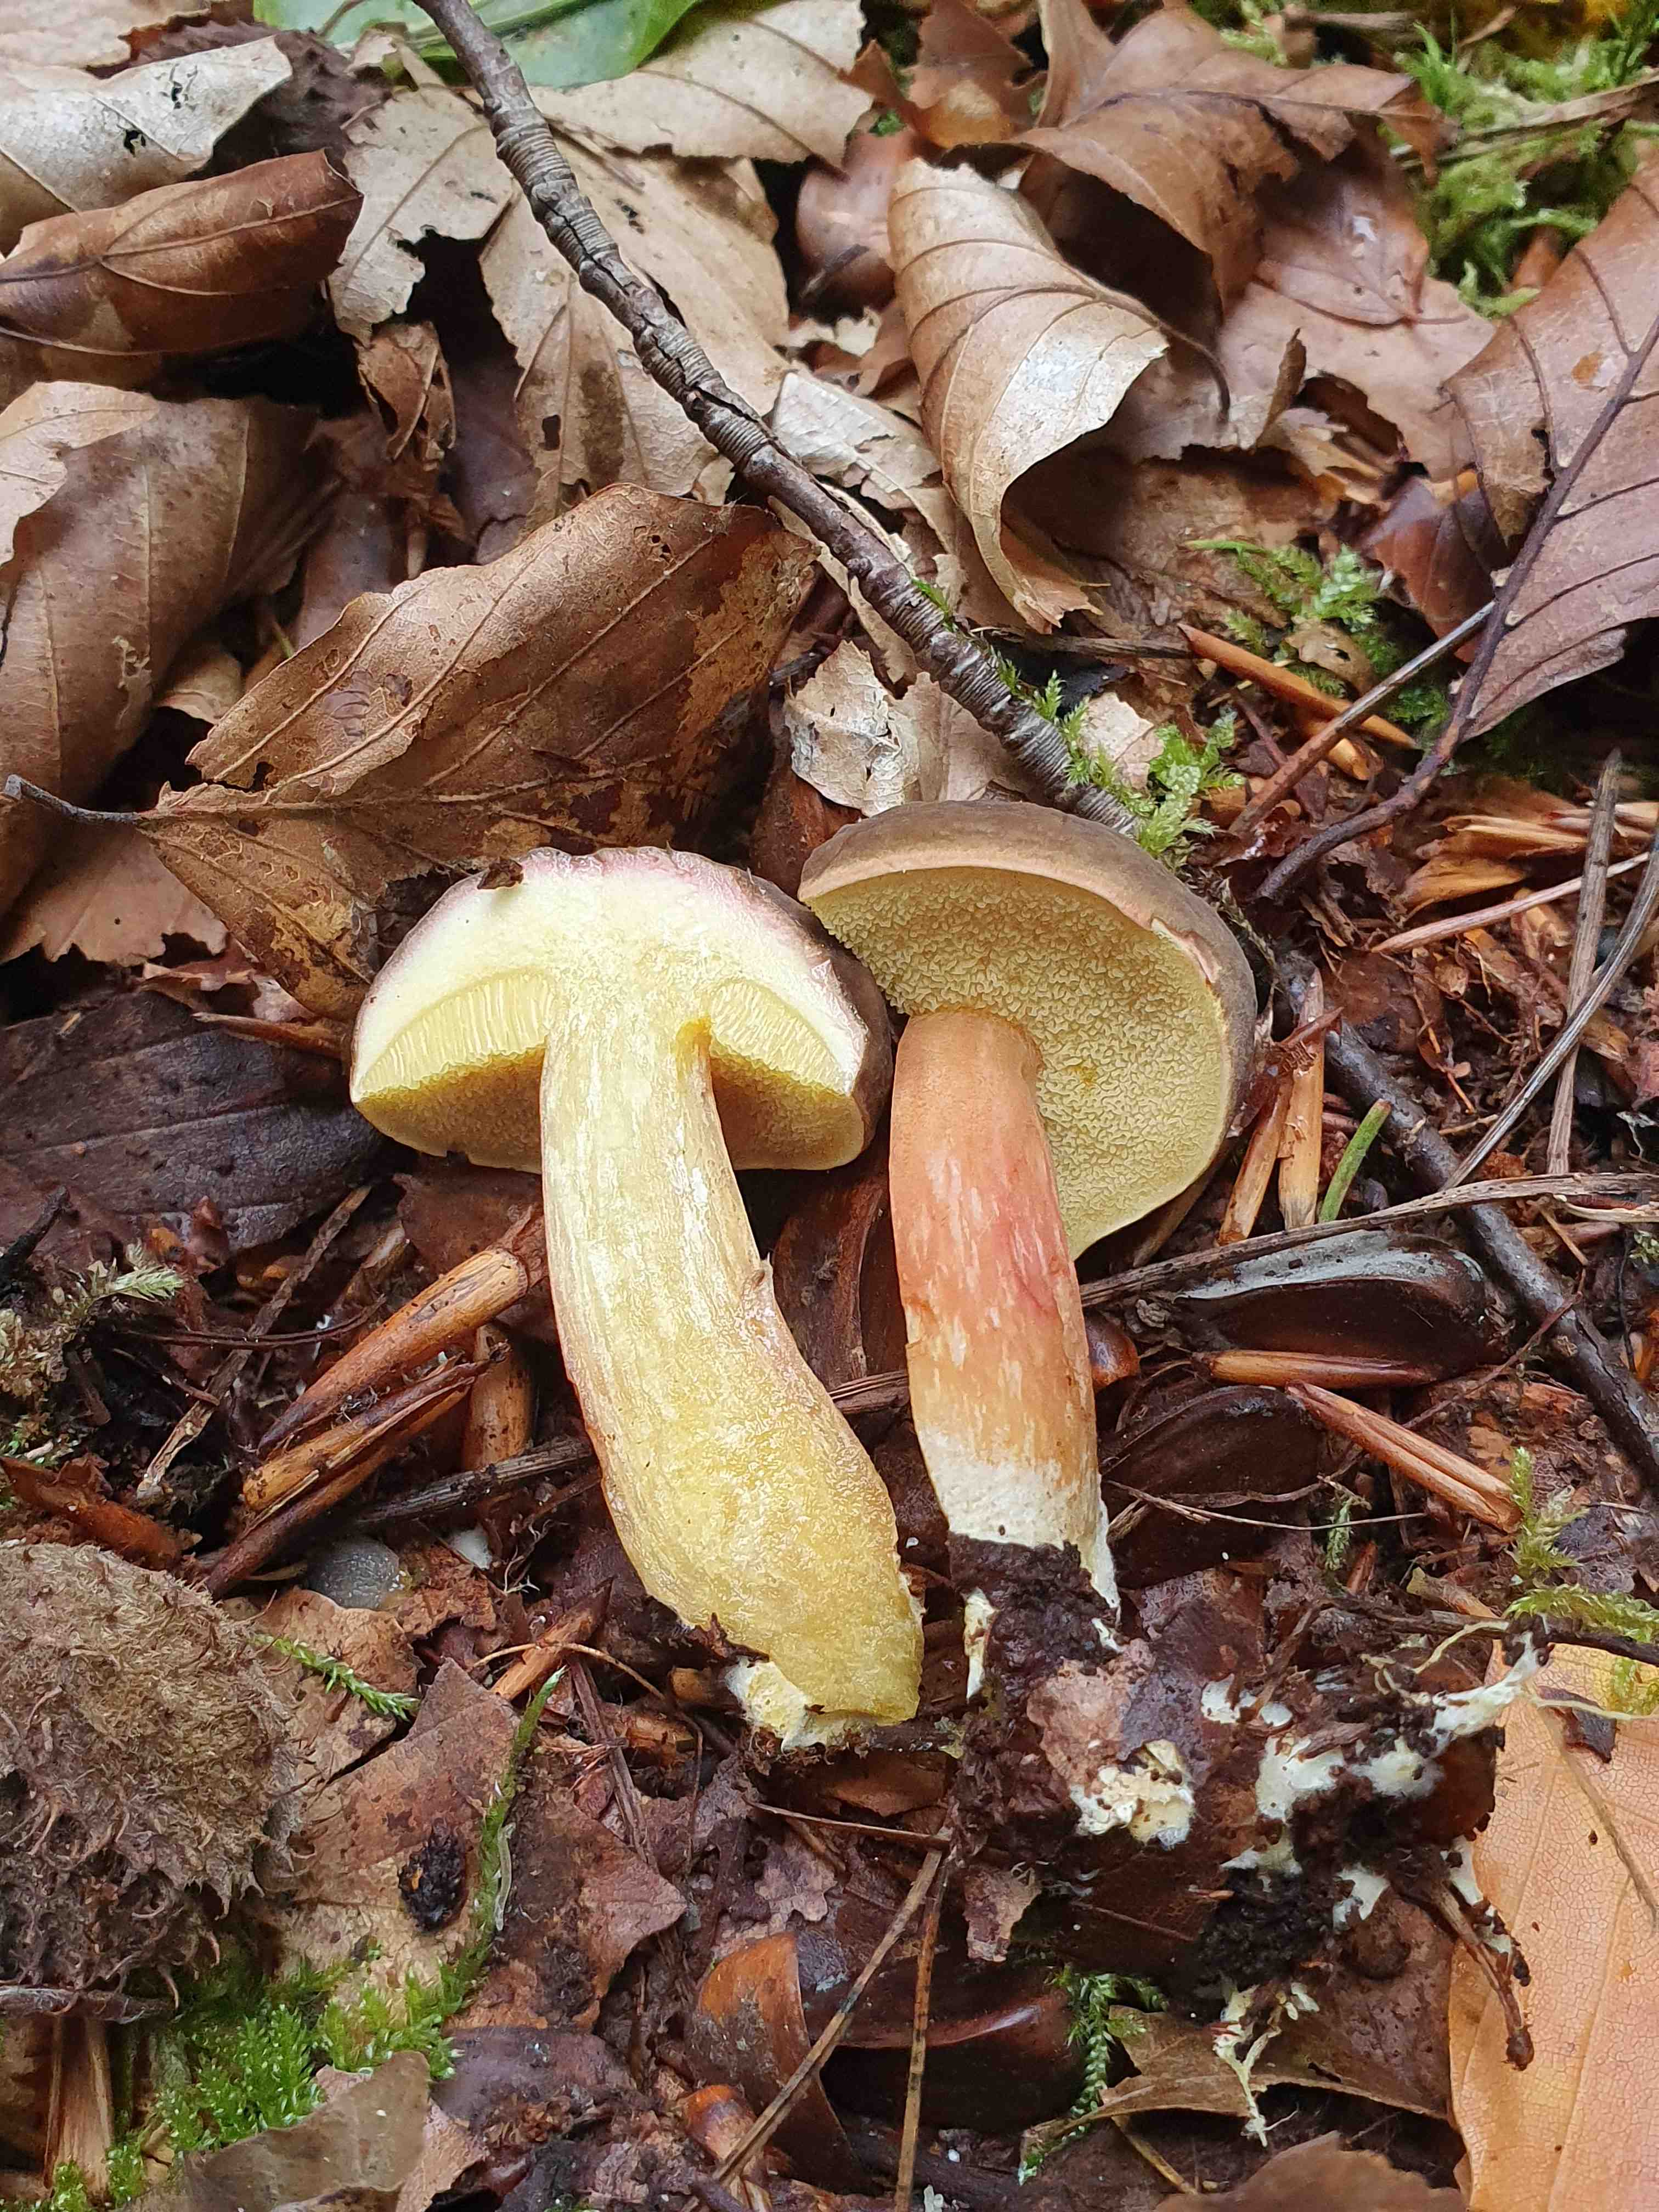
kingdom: Fungi
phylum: Basidiomycota
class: Agaricomycetes
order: Boletales
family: Boletaceae
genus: Xerocomellus
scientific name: Xerocomellus pruinatus
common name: dugget rørhat
